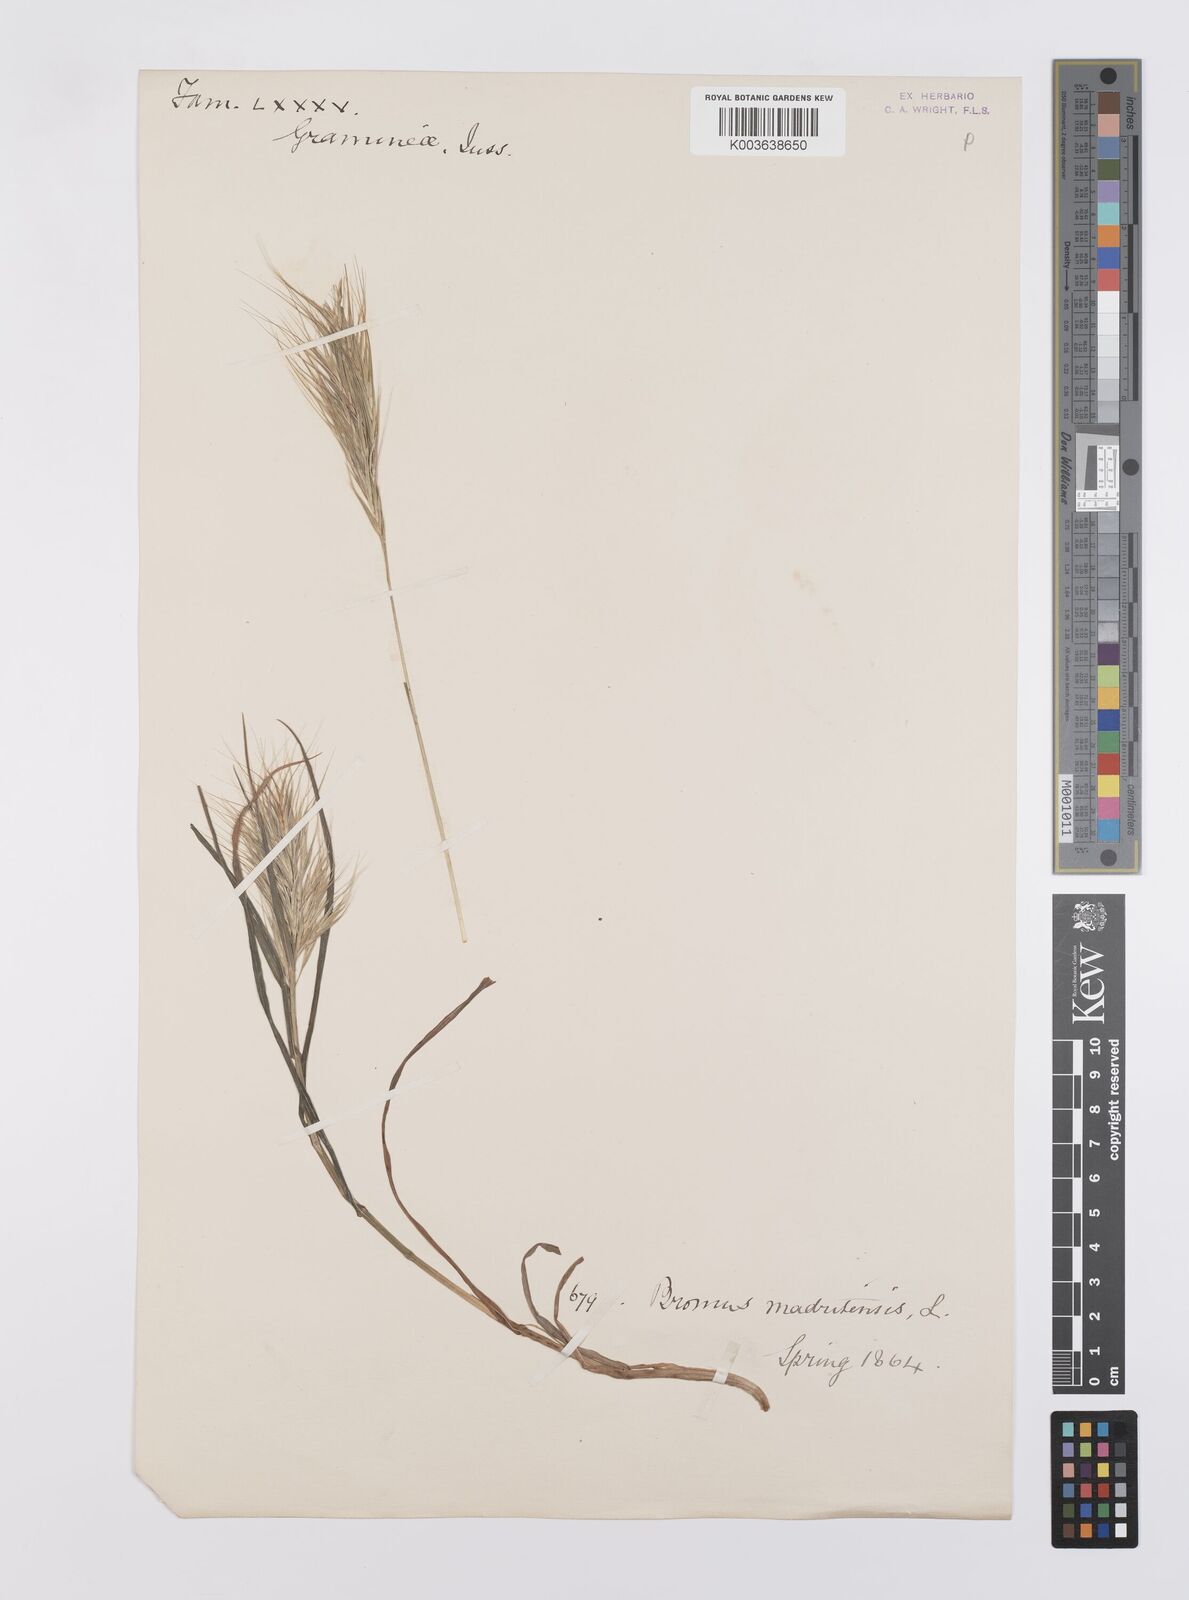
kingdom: Plantae
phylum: Tracheophyta
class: Liliopsida
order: Poales
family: Poaceae
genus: Bromus
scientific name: Bromus madritensis
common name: Compact brome
